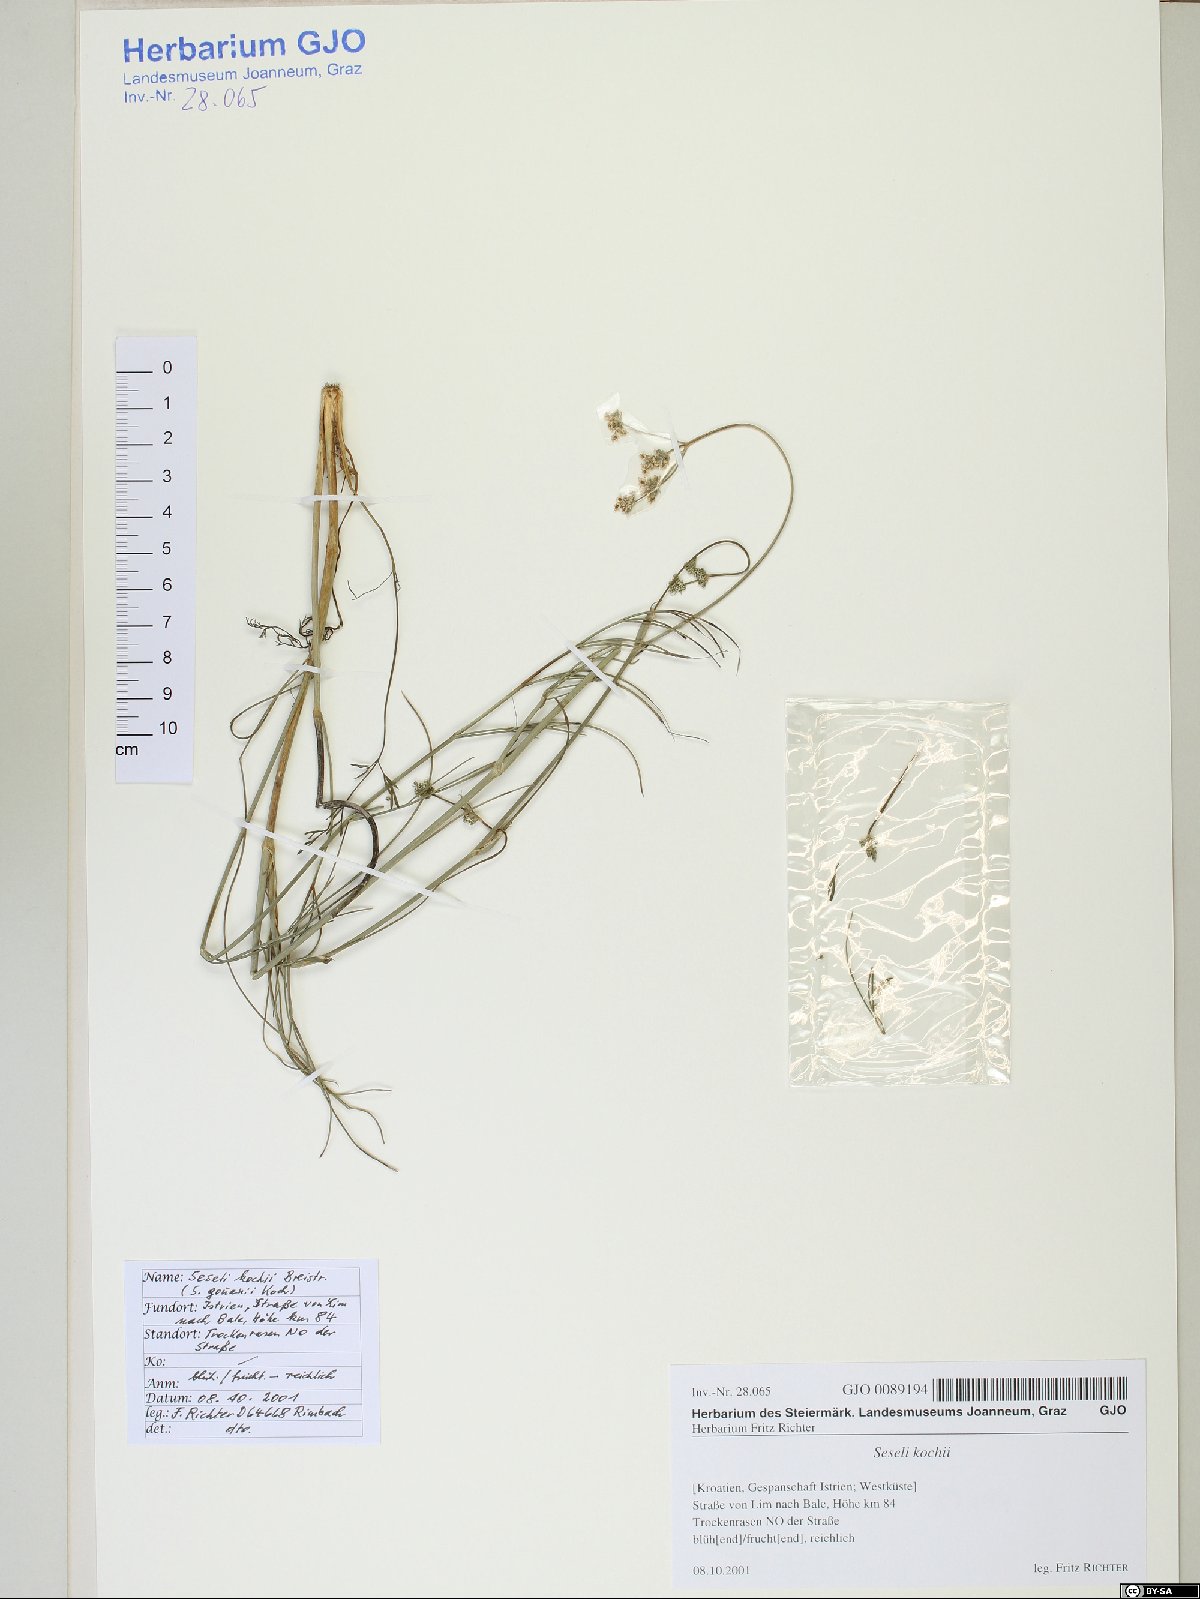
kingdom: Plantae
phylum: Tracheophyta
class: Magnoliopsida
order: Apiales
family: Apiaceae
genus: Seseli
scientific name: Seseli gouanii
